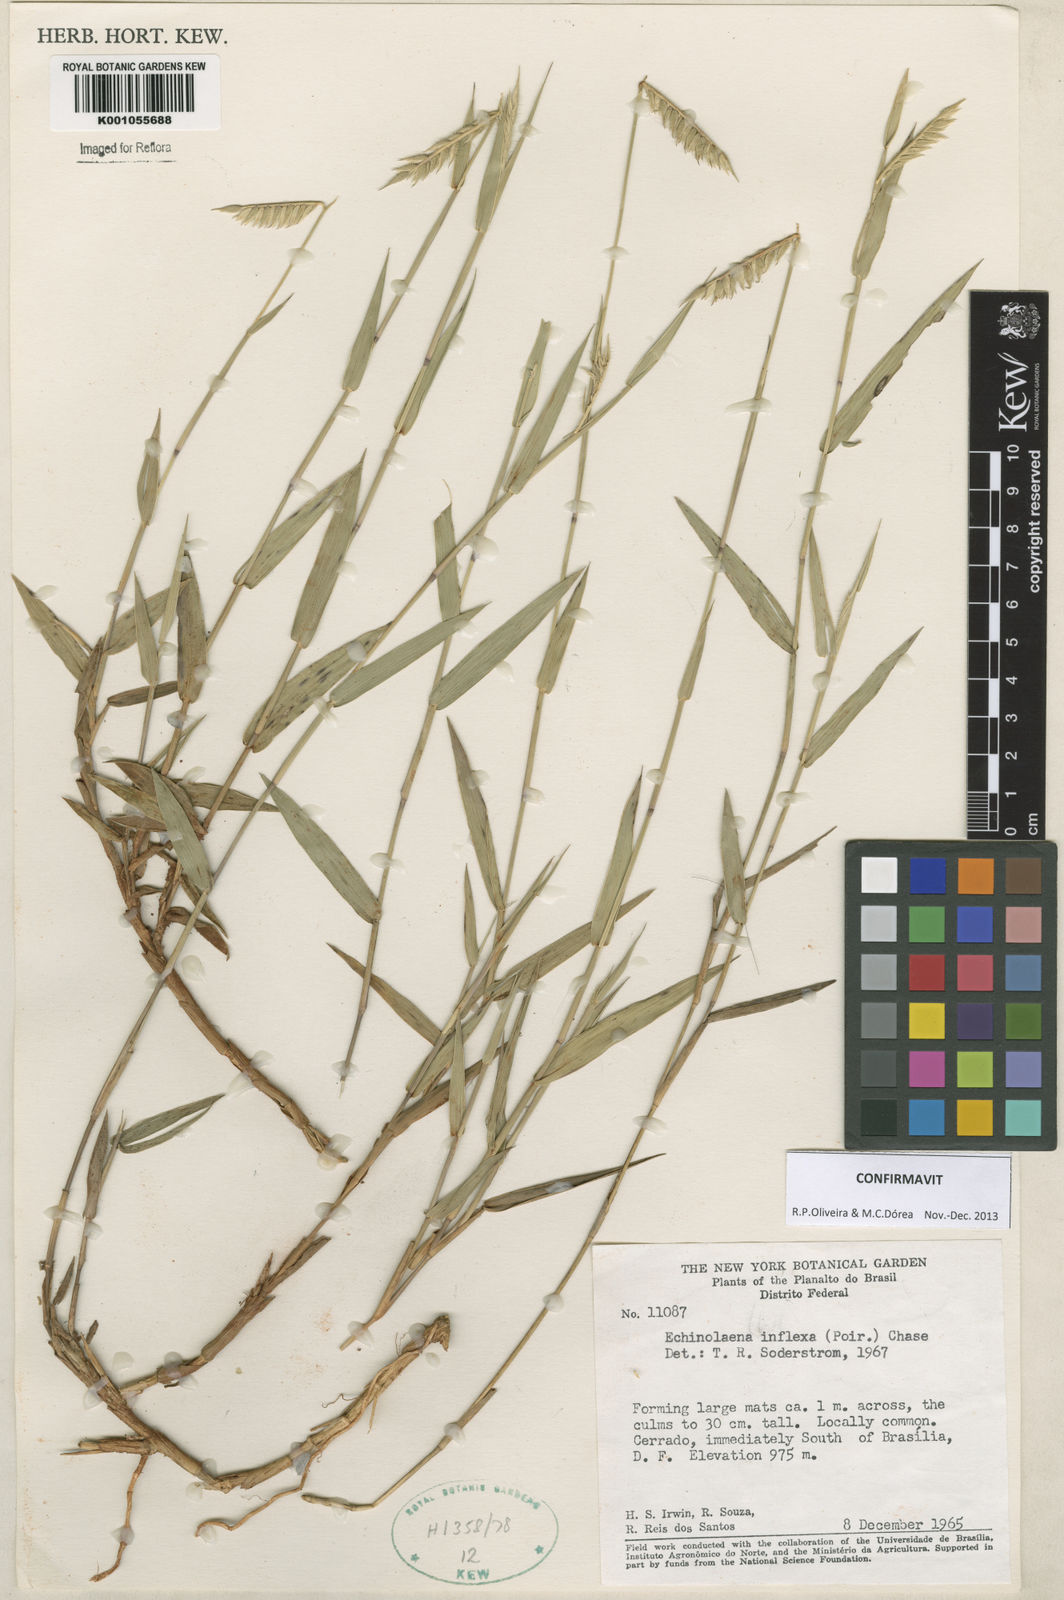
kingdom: Plantae
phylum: Tracheophyta
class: Liliopsida
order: Poales
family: Poaceae
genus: Echinolaena
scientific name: Echinolaena inflexa
